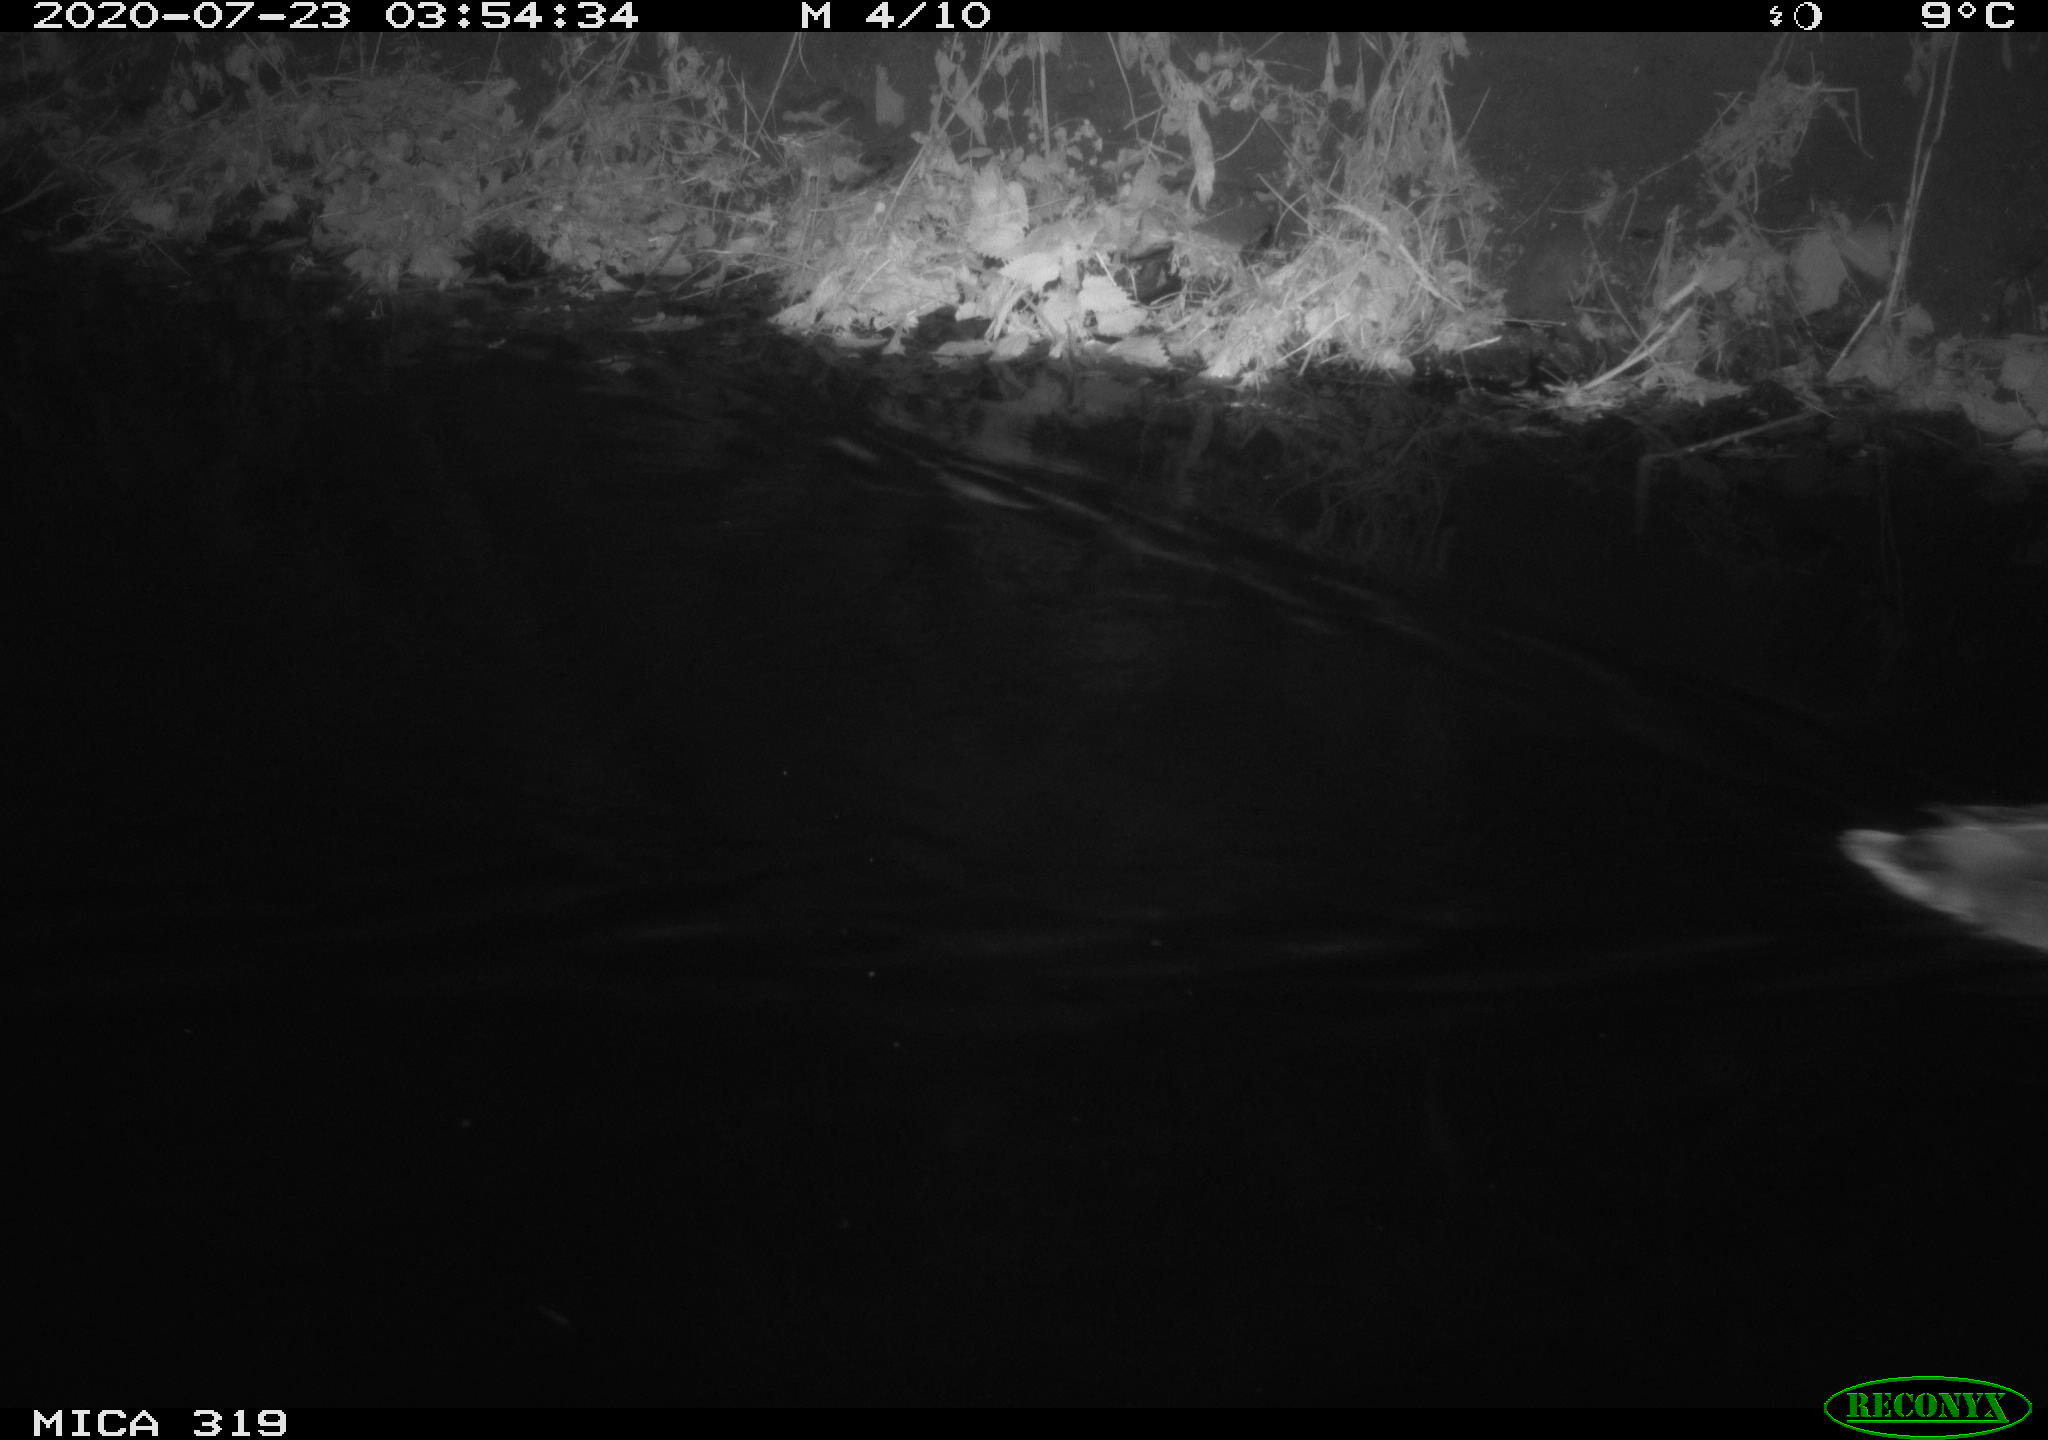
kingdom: Animalia
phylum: Chordata
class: Aves
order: Anseriformes
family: Anatidae
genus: Anas
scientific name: Anas platyrhynchos
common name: Mallard
